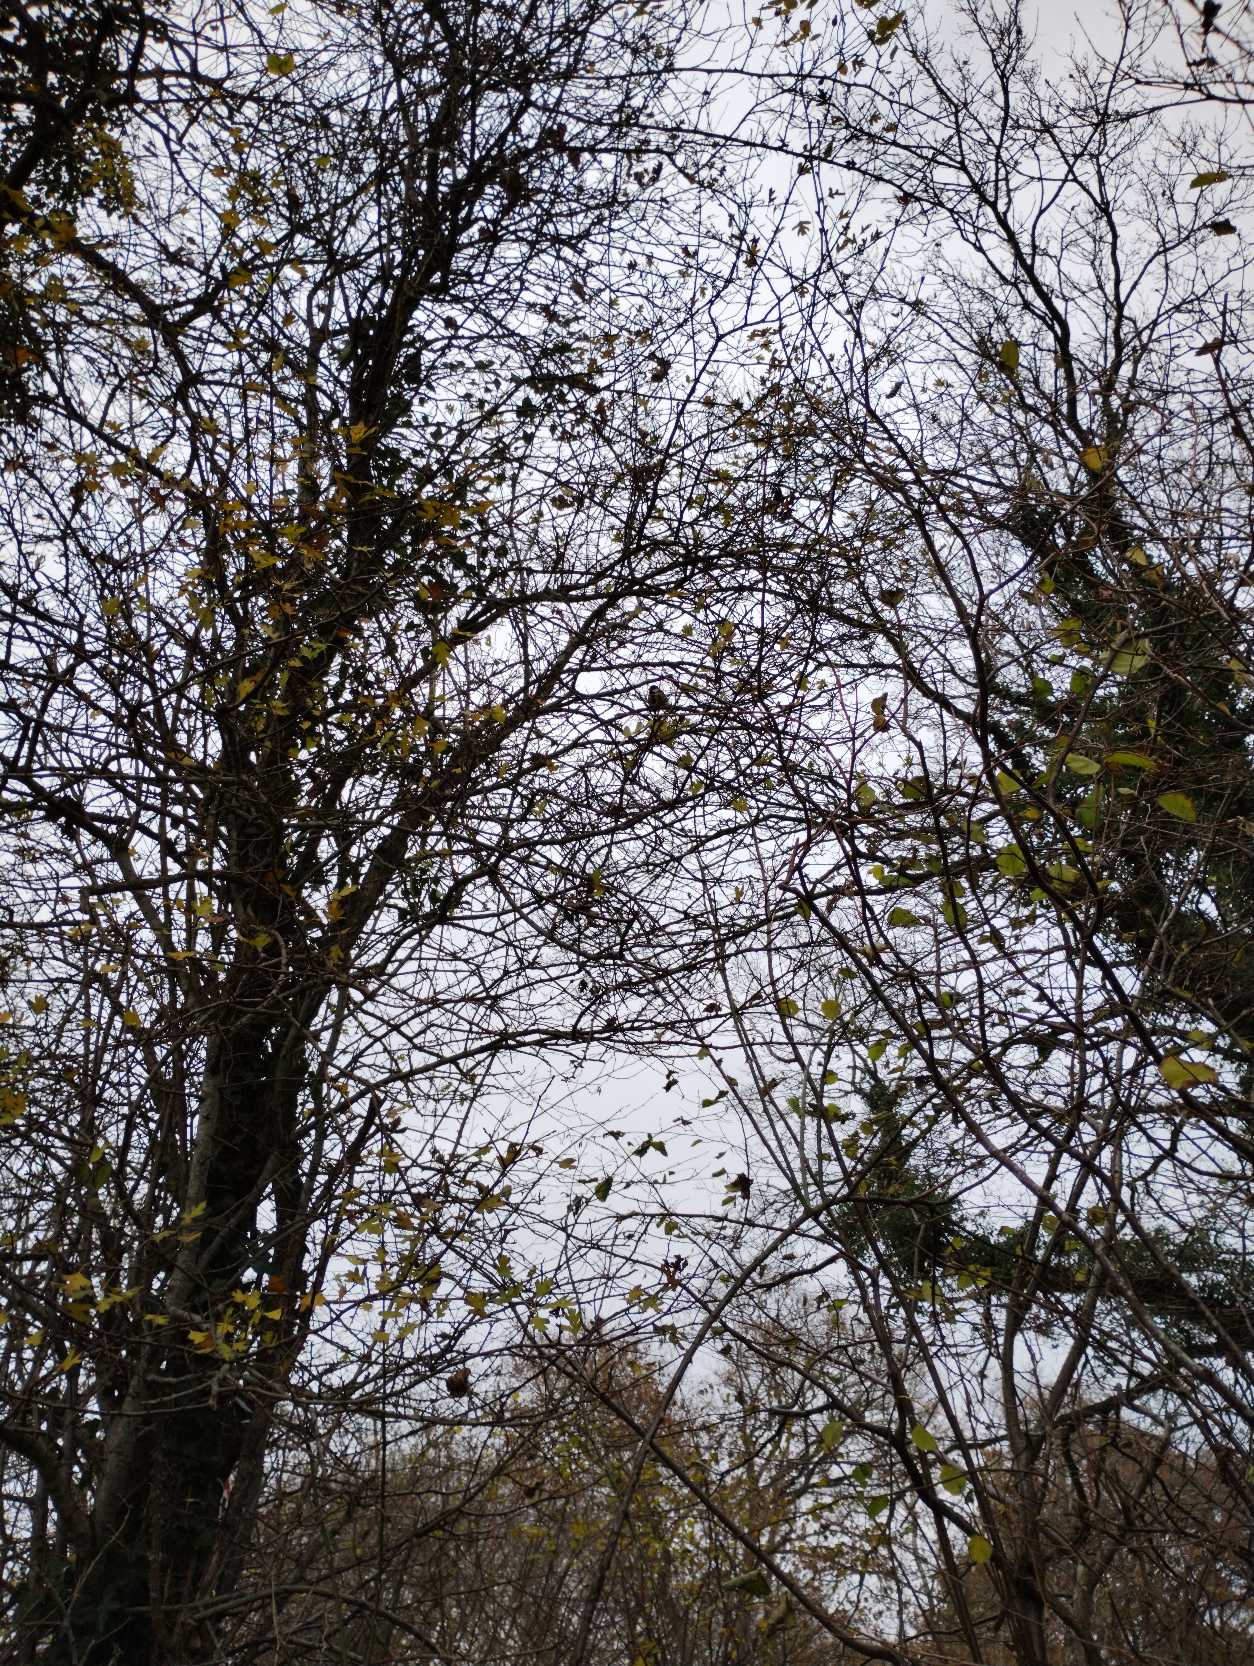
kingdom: Animalia
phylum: Chordata
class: Aves
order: Passeriformes
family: Paridae
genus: Parus
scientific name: Parus major
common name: Musvit
